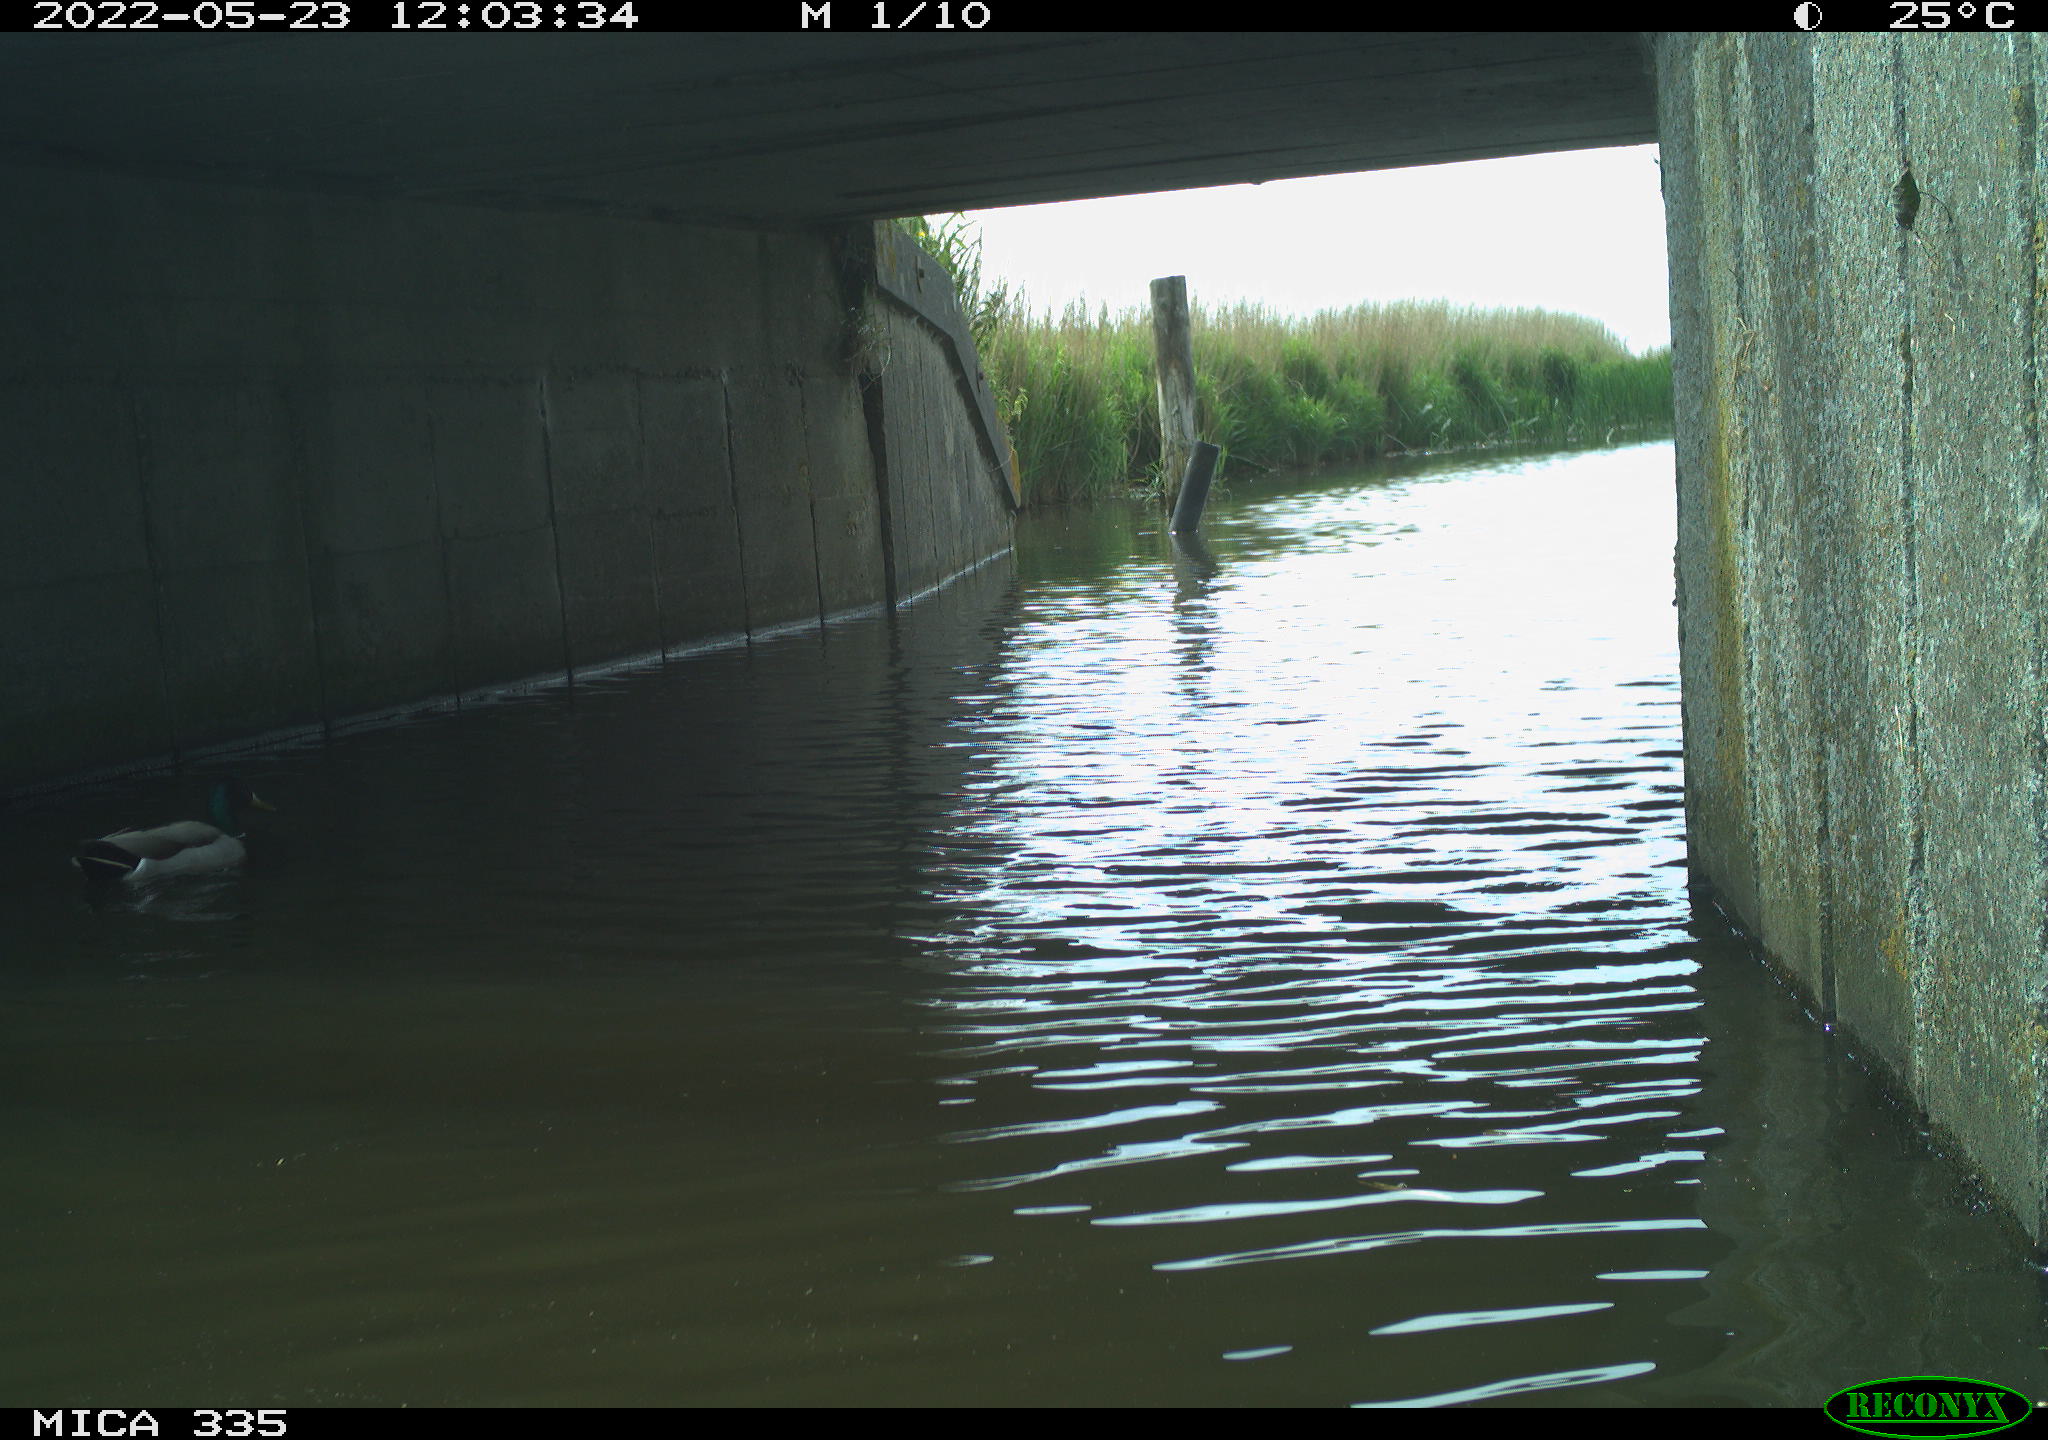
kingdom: Animalia
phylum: Chordata
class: Aves
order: Anseriformes
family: Anatidae
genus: Anas
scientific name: Anas platyrhynchos
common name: Mallard
